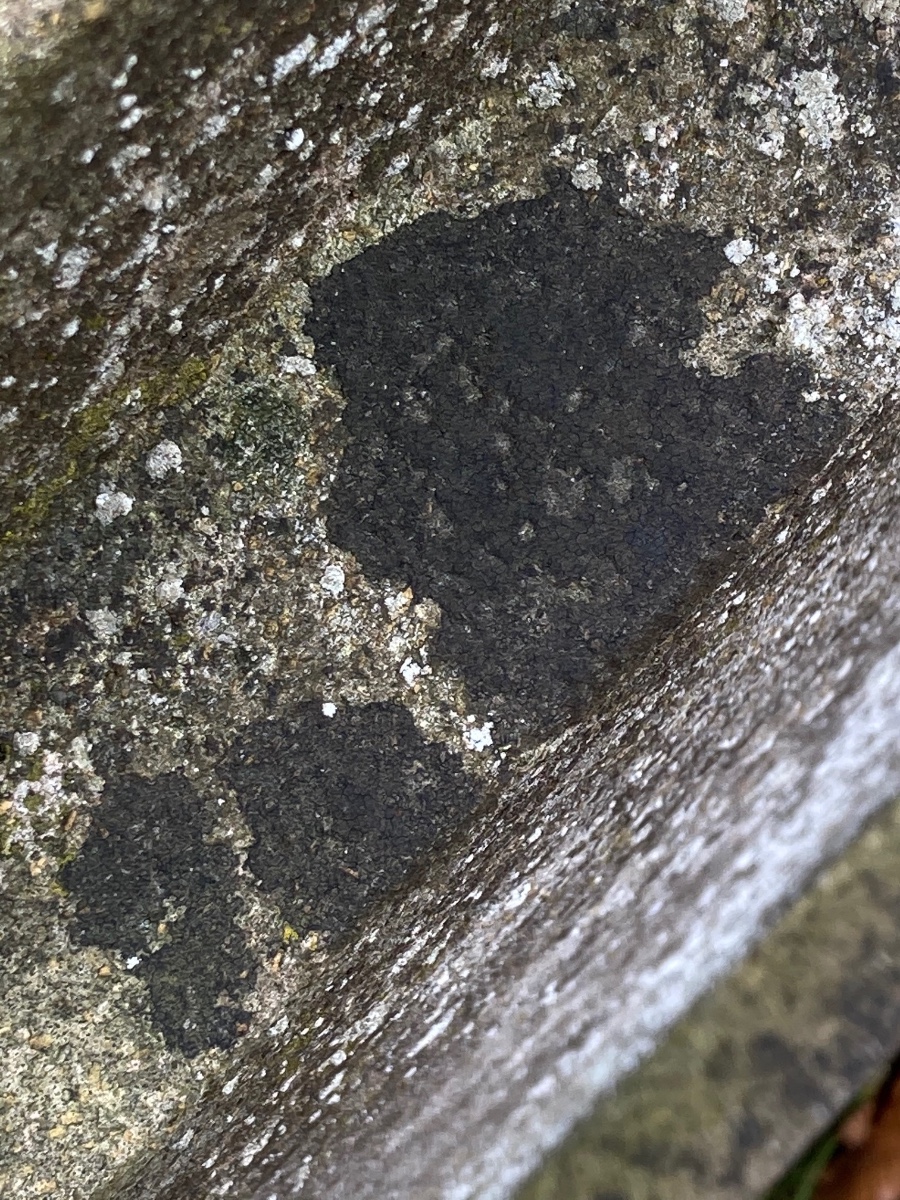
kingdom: Fungi
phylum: Ascomycota
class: Eurotiomycetes
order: Verrucariales
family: Verrucariaceae
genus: Verrucaria
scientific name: Verrucaria nigrescens
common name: sortbrun vortelav
